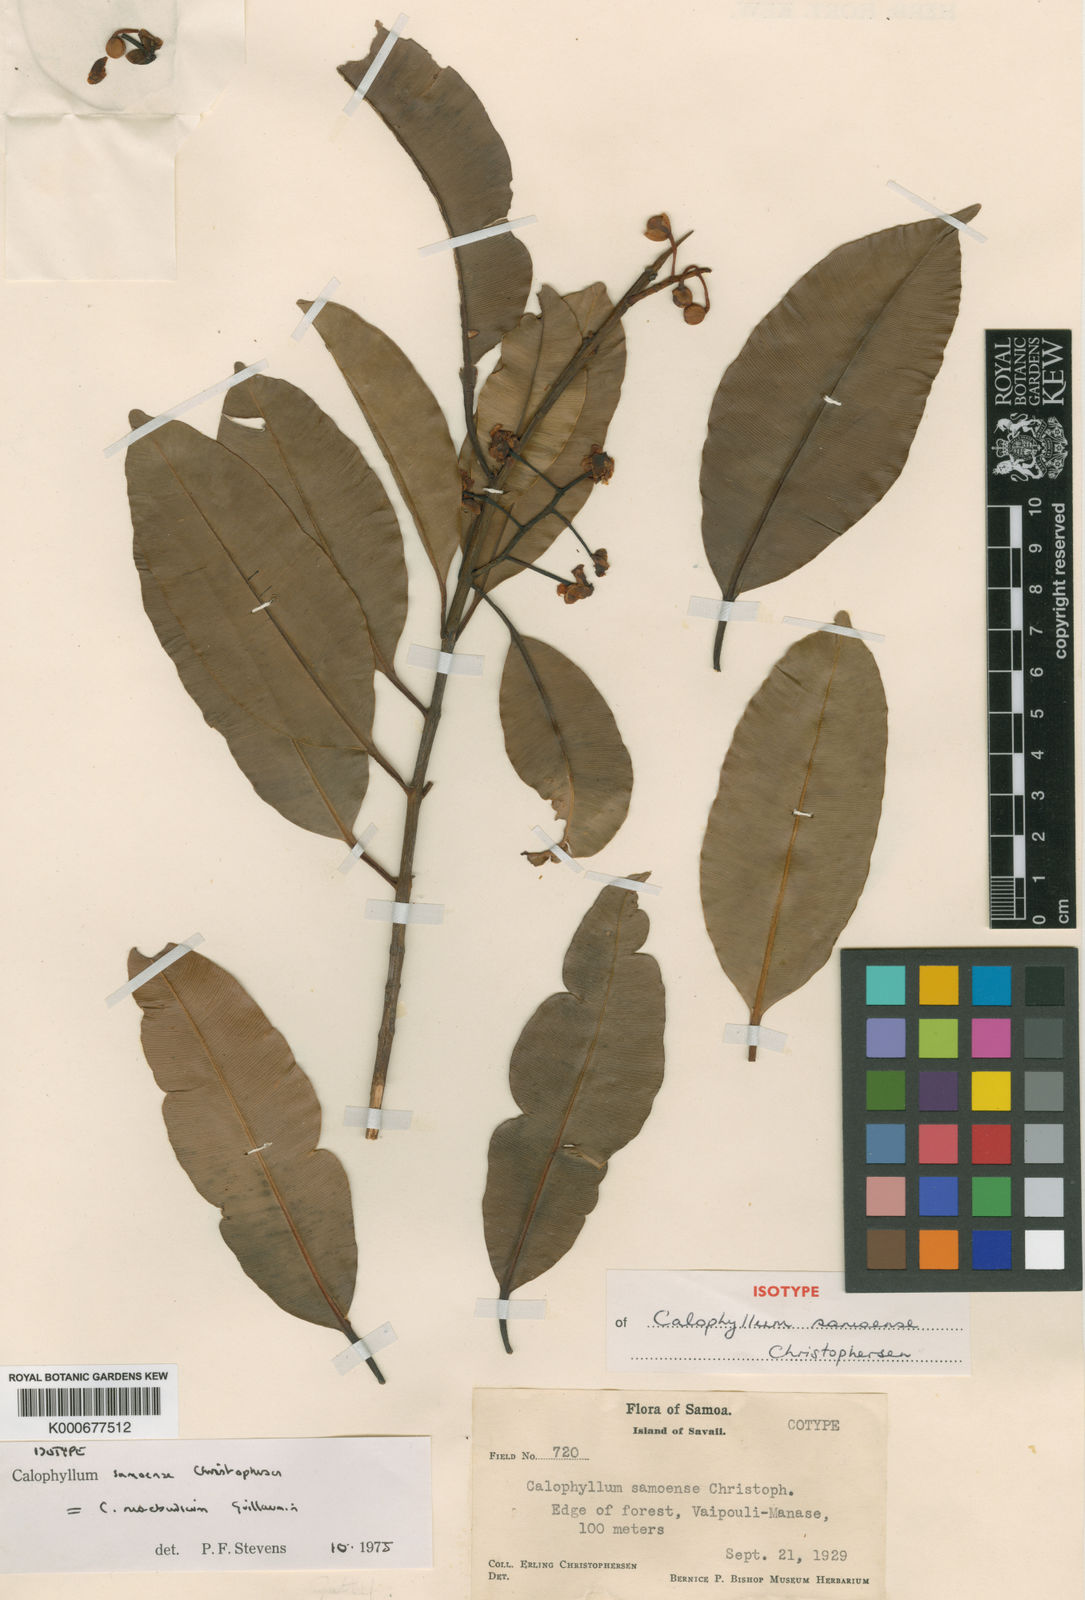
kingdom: Plantae
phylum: Tracheophyta
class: Magnoliopsida
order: Malpighiales
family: Calophyllaceae
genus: Calophyllum
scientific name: Calophyllum neoebudicum
